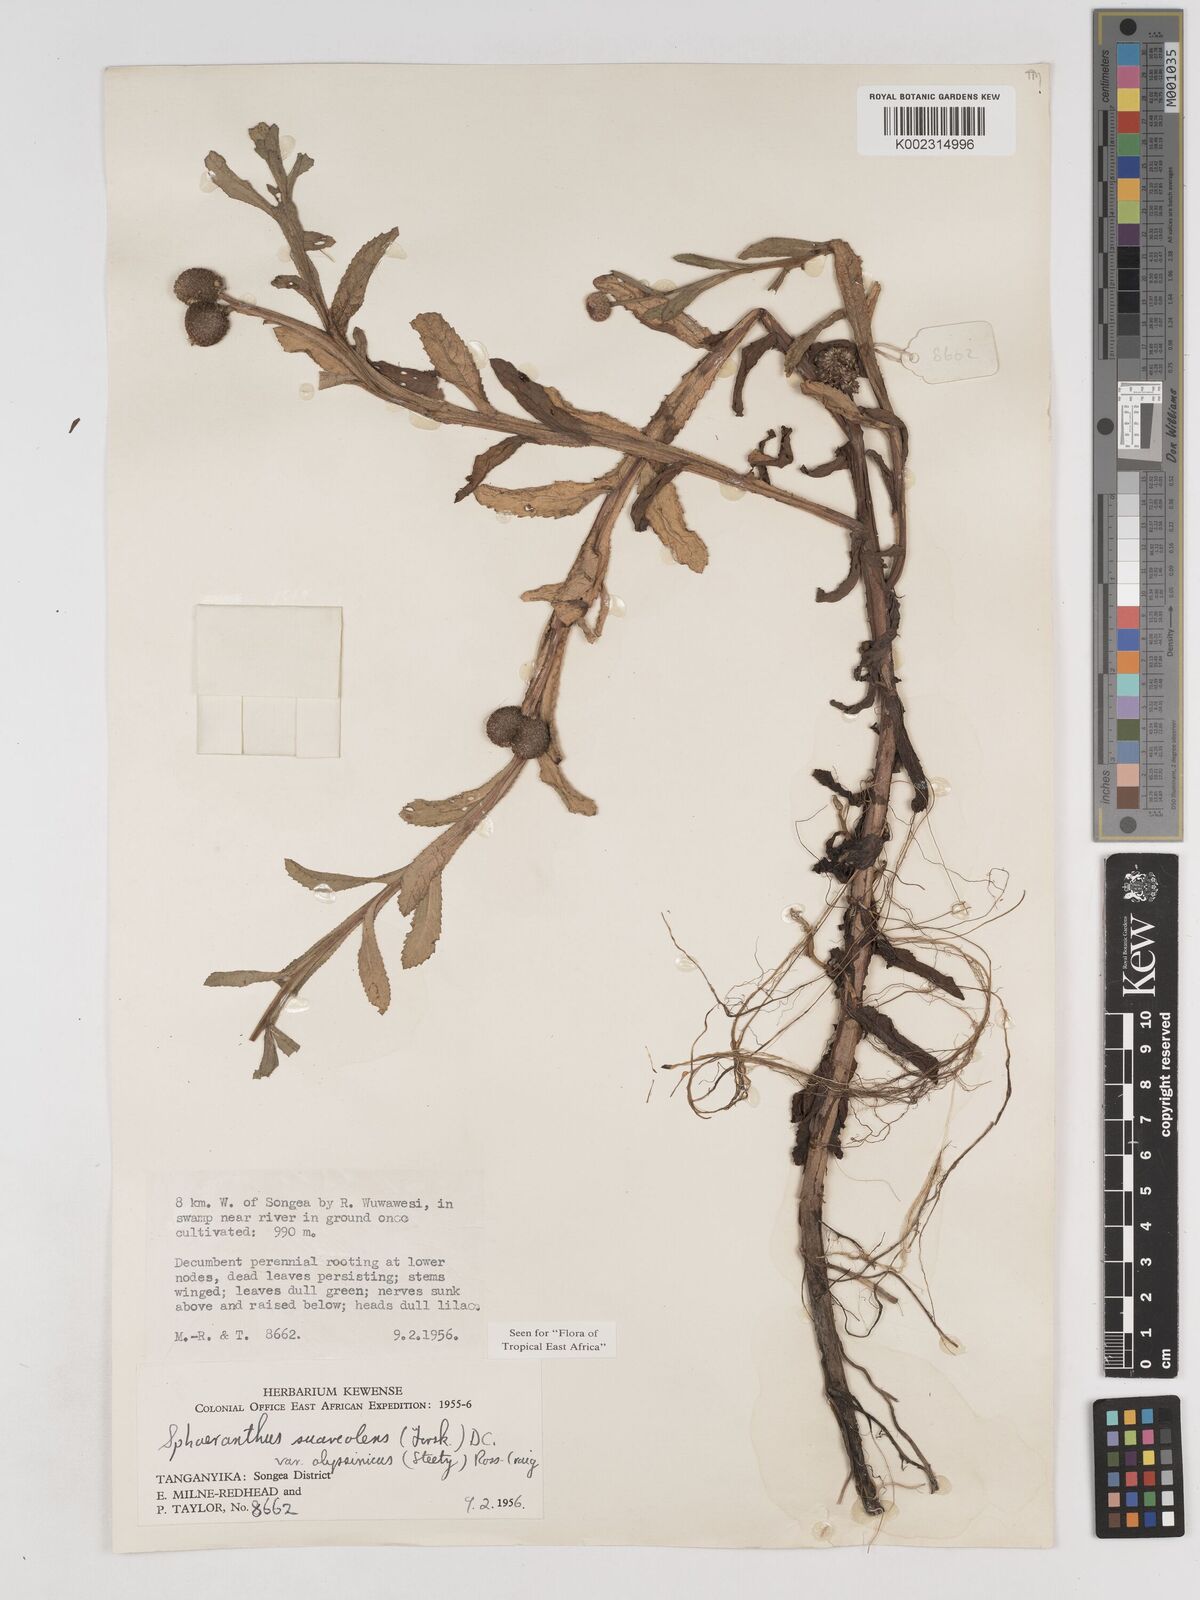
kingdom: Plantae
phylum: Tracheophyta
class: Magnoliopsida
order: Asterales
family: Asteraceae
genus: Sphaeranthus
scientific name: Sphaeranthus suaveolens
